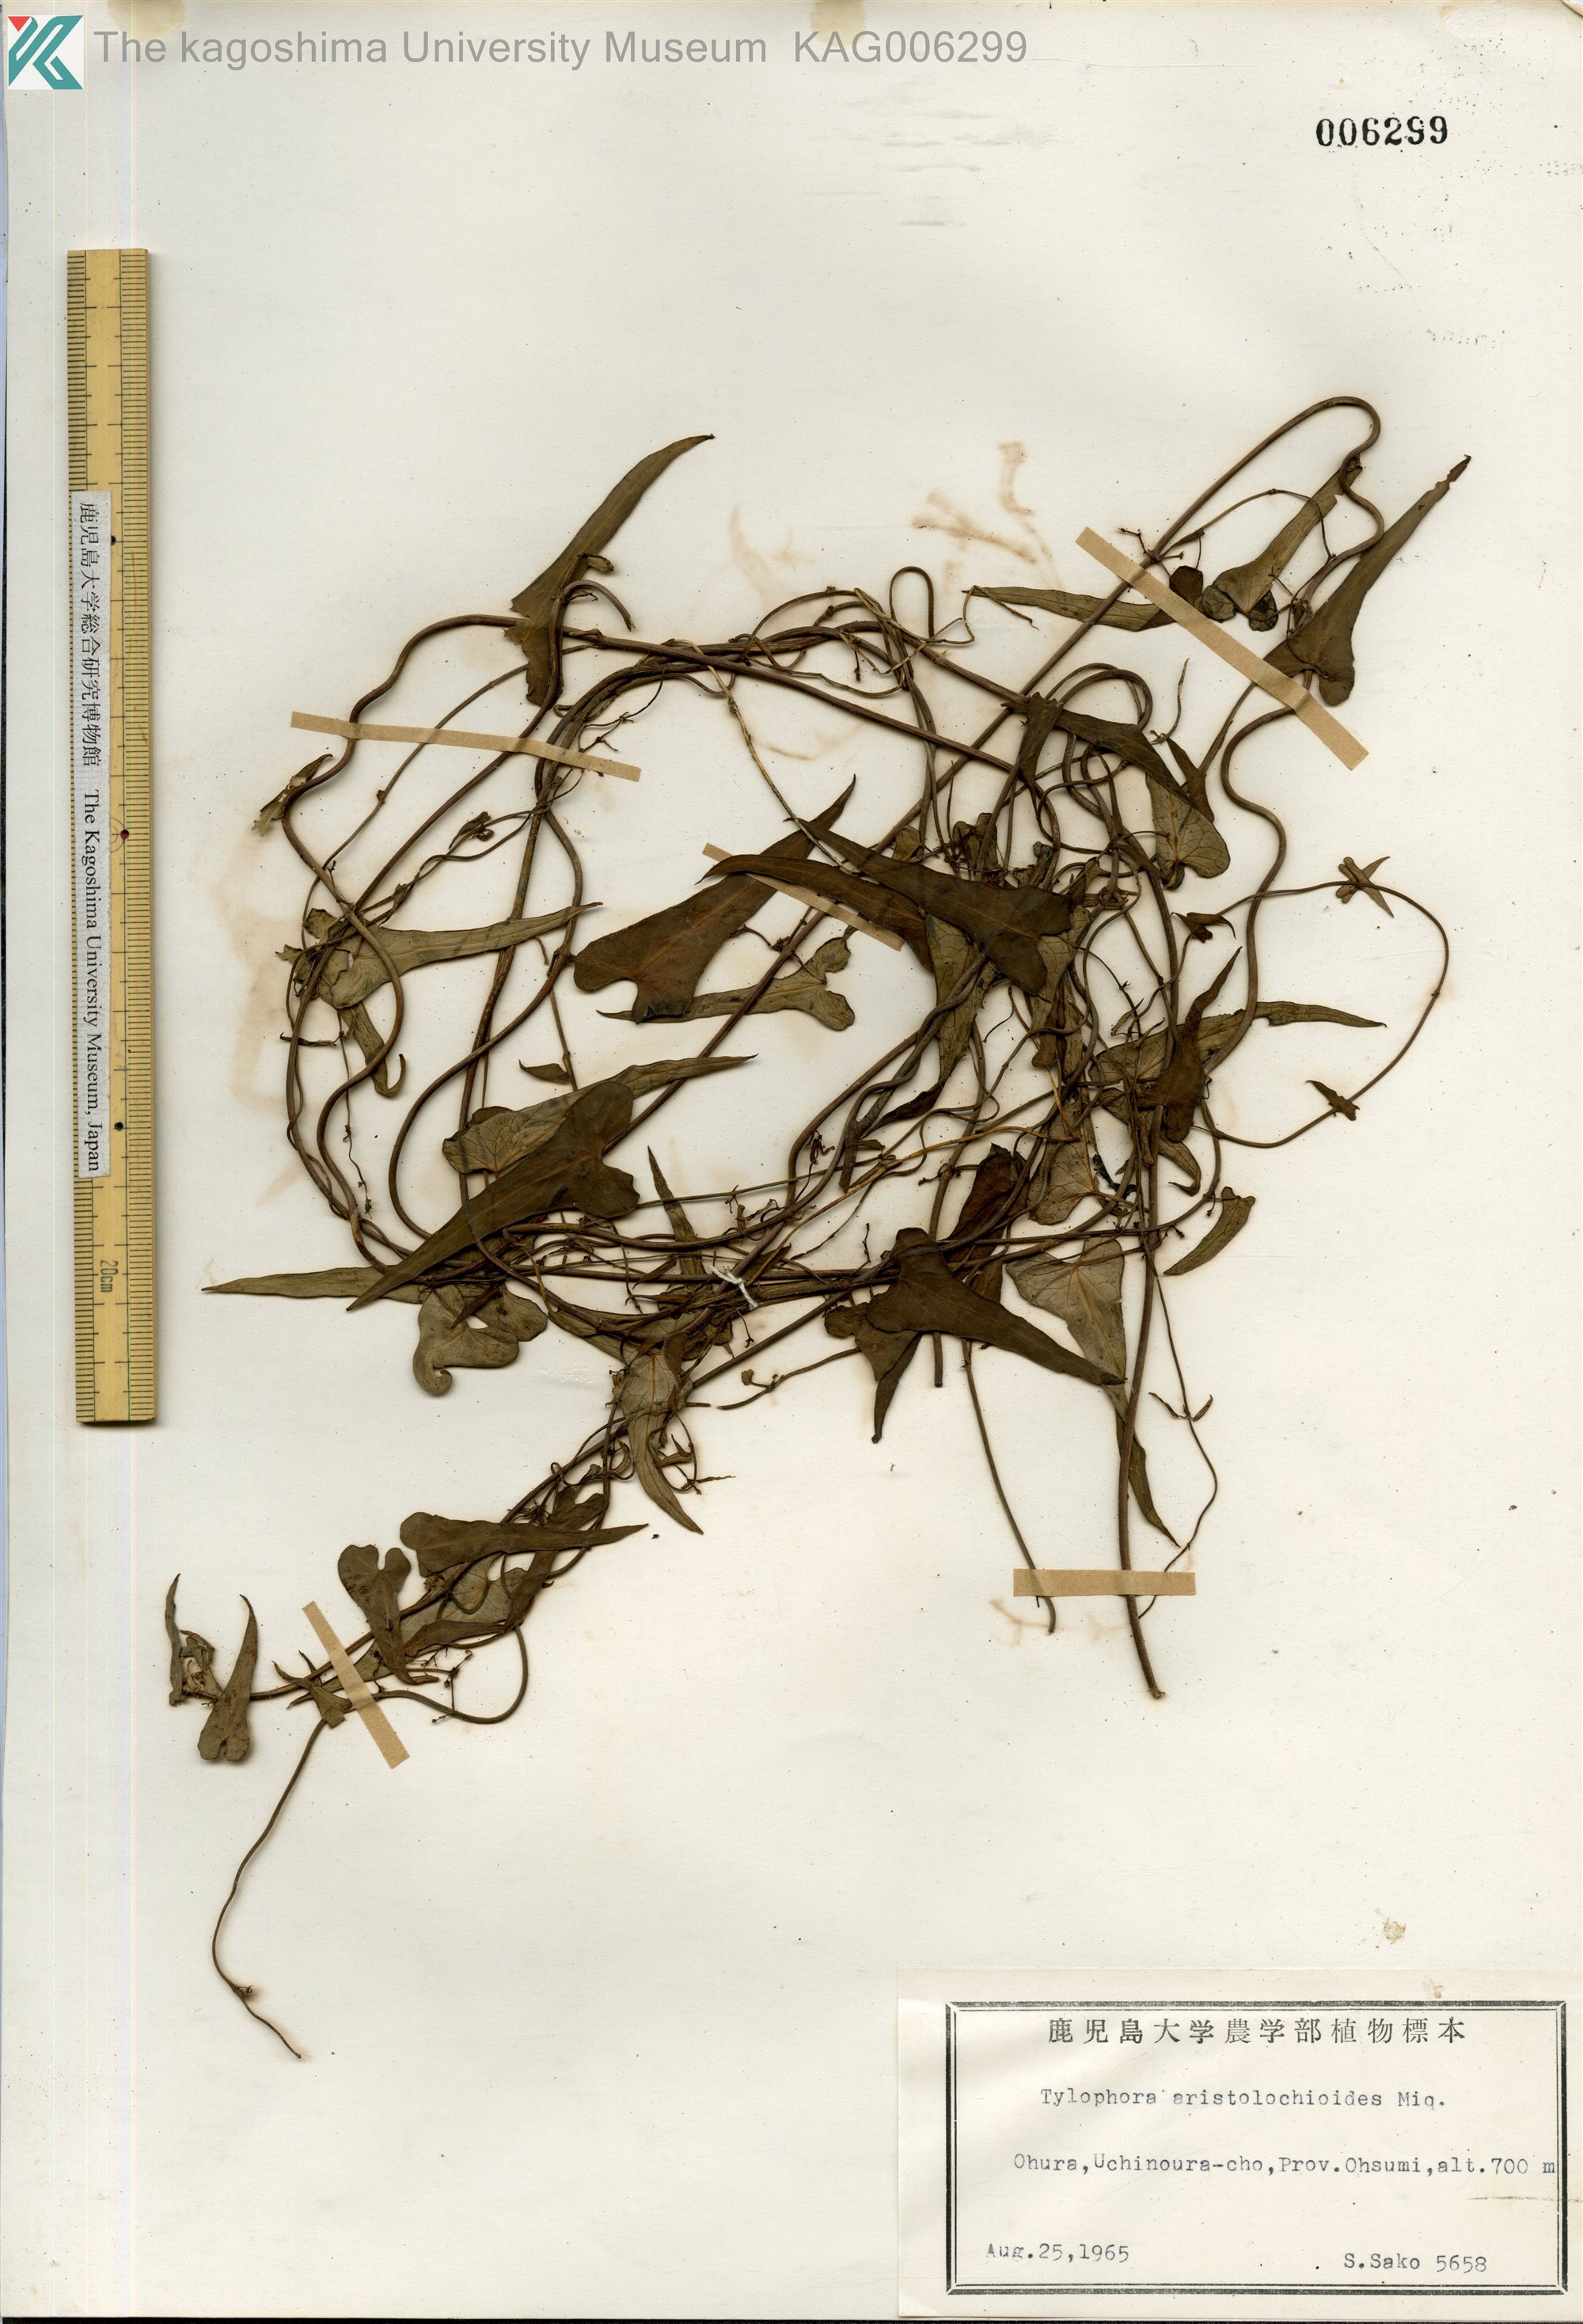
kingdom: Plantae
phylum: Tracheophyta
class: Magnoliopsida
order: Gentianales
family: Apocynaceae
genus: Vincetoxicum
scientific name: Vincetoxicum aristolochioides
